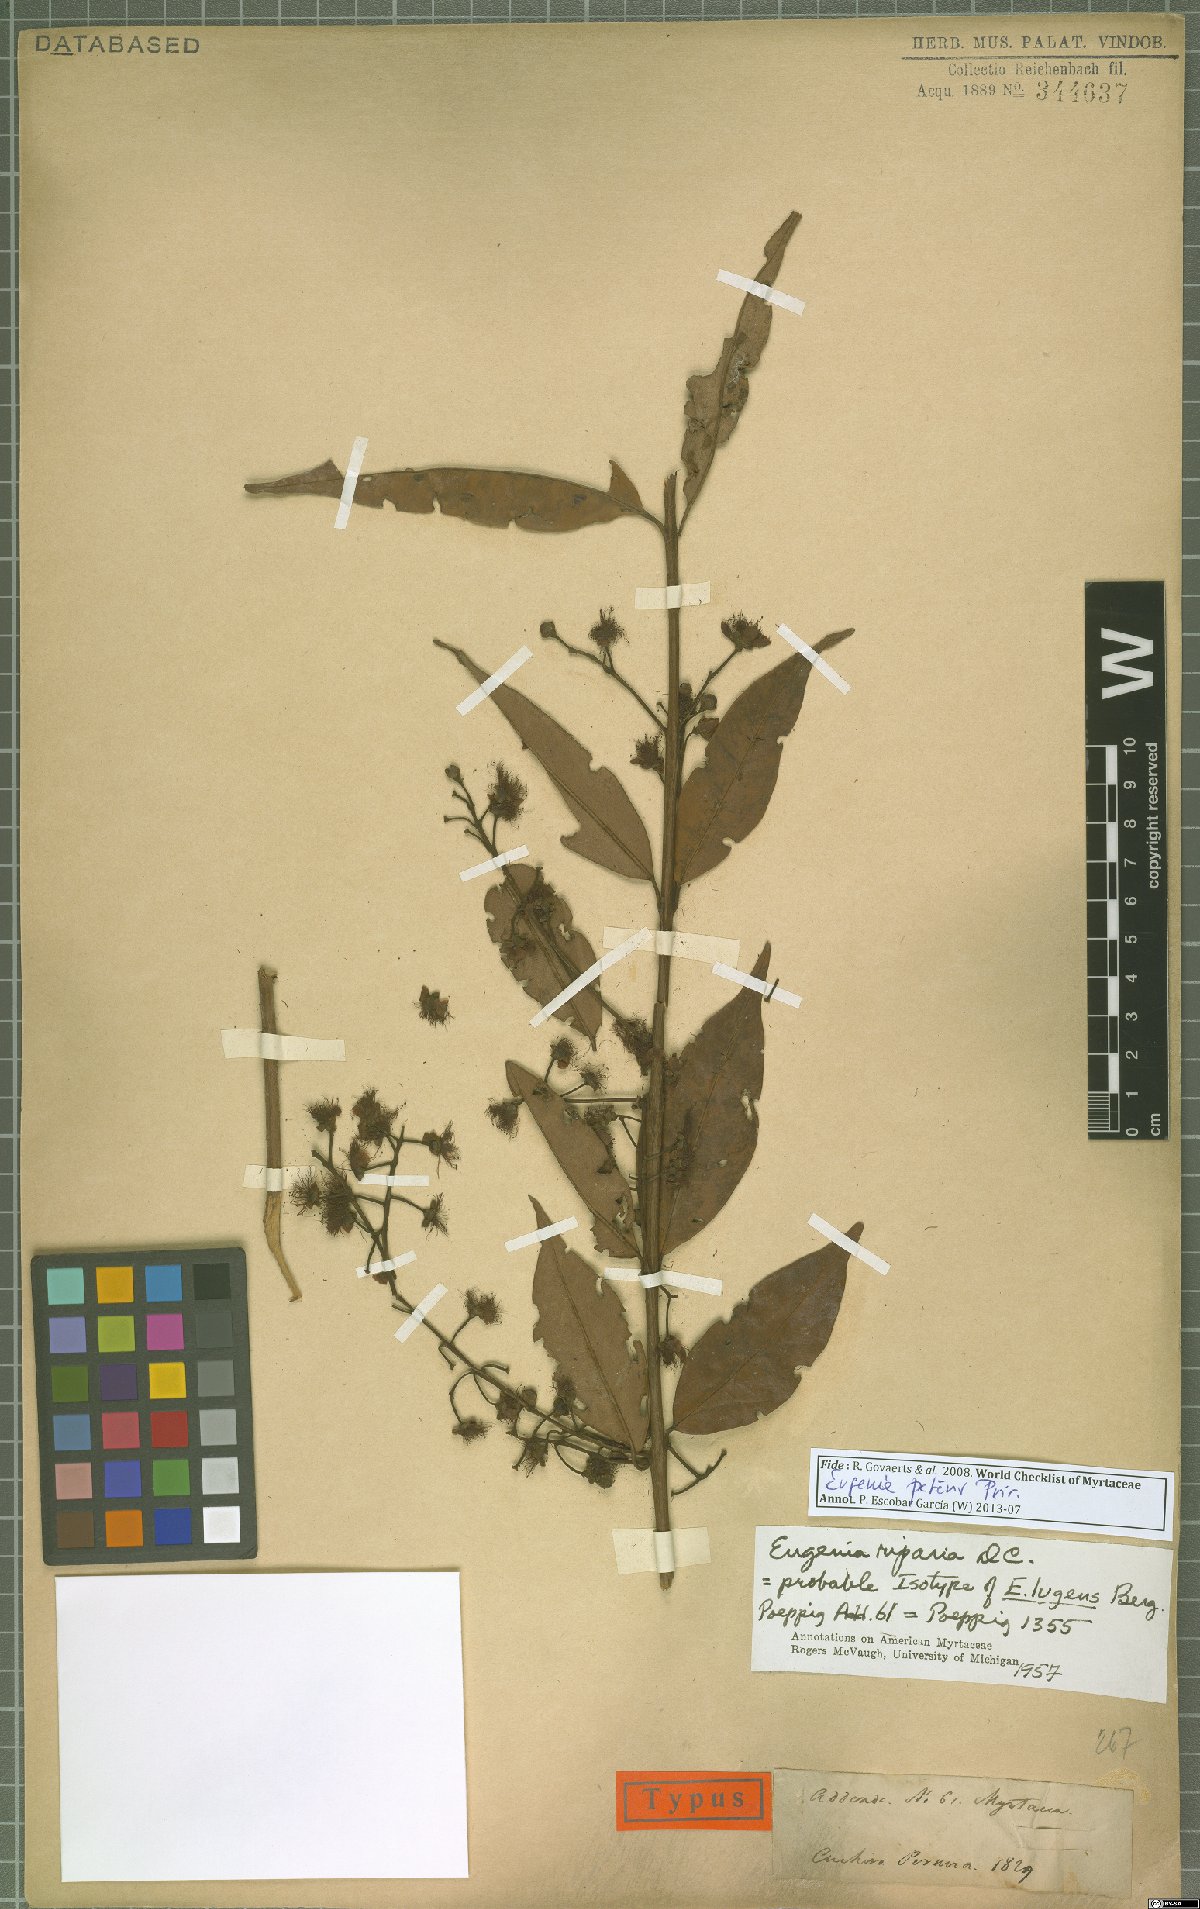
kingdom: Plantae
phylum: Tracheophyta
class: Magnoliopsida
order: Myrtales
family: Myrtaceae
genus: Eugenia
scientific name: Eugenia patens
